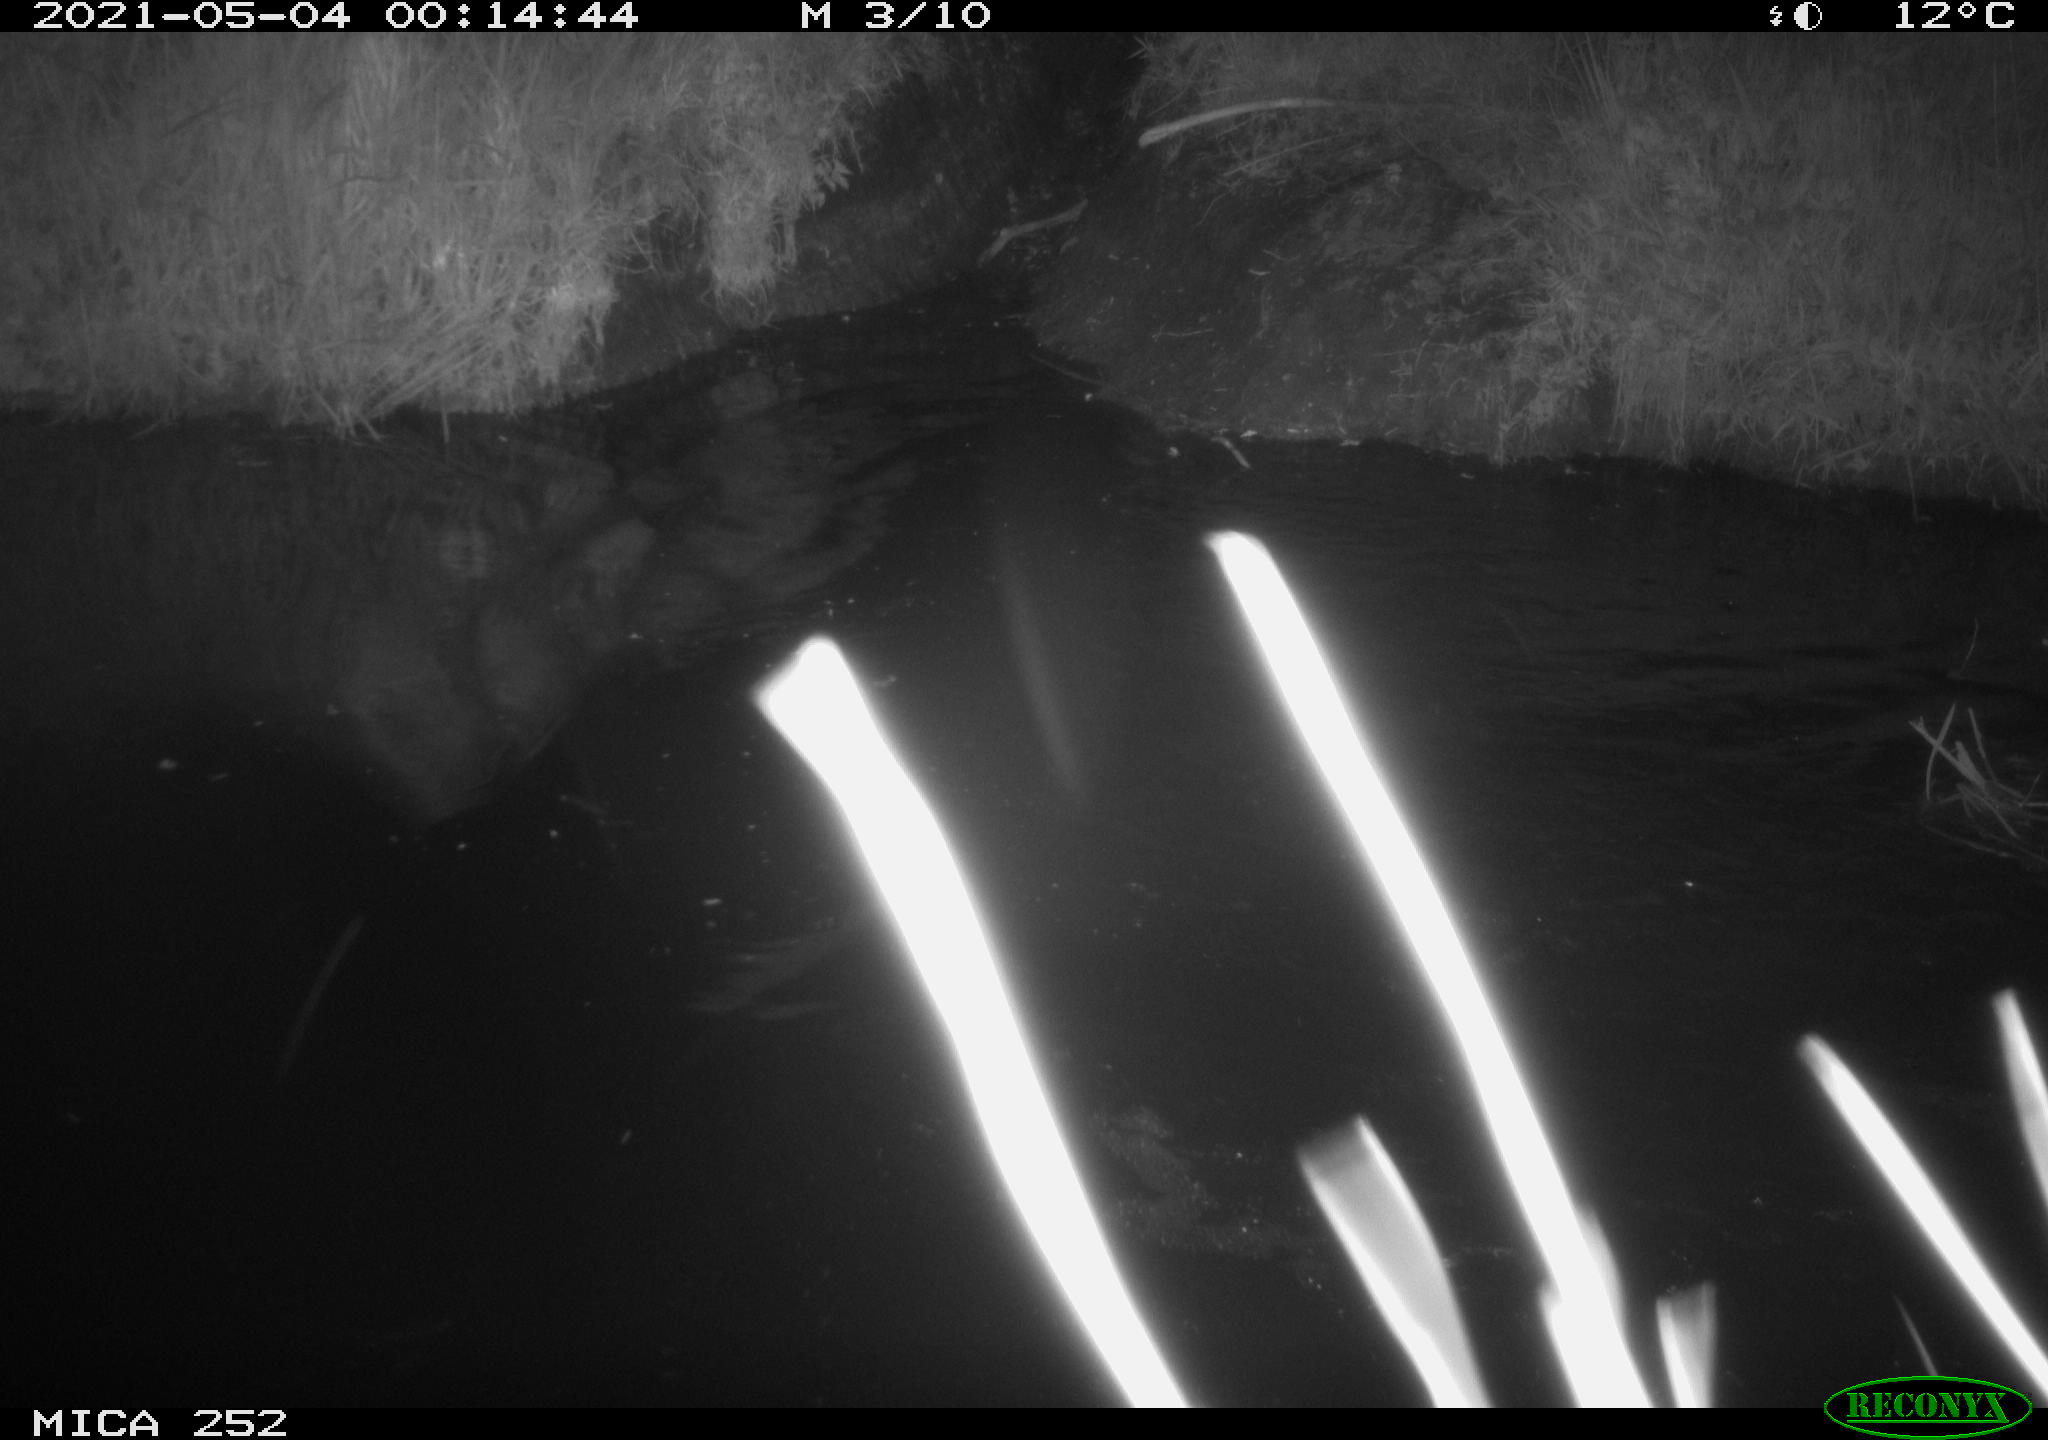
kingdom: Animalia
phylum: Chordata
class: Mammalia
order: Artiodactyla
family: Suidae
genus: Sus
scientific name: Sus scrofa
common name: Wild boar
